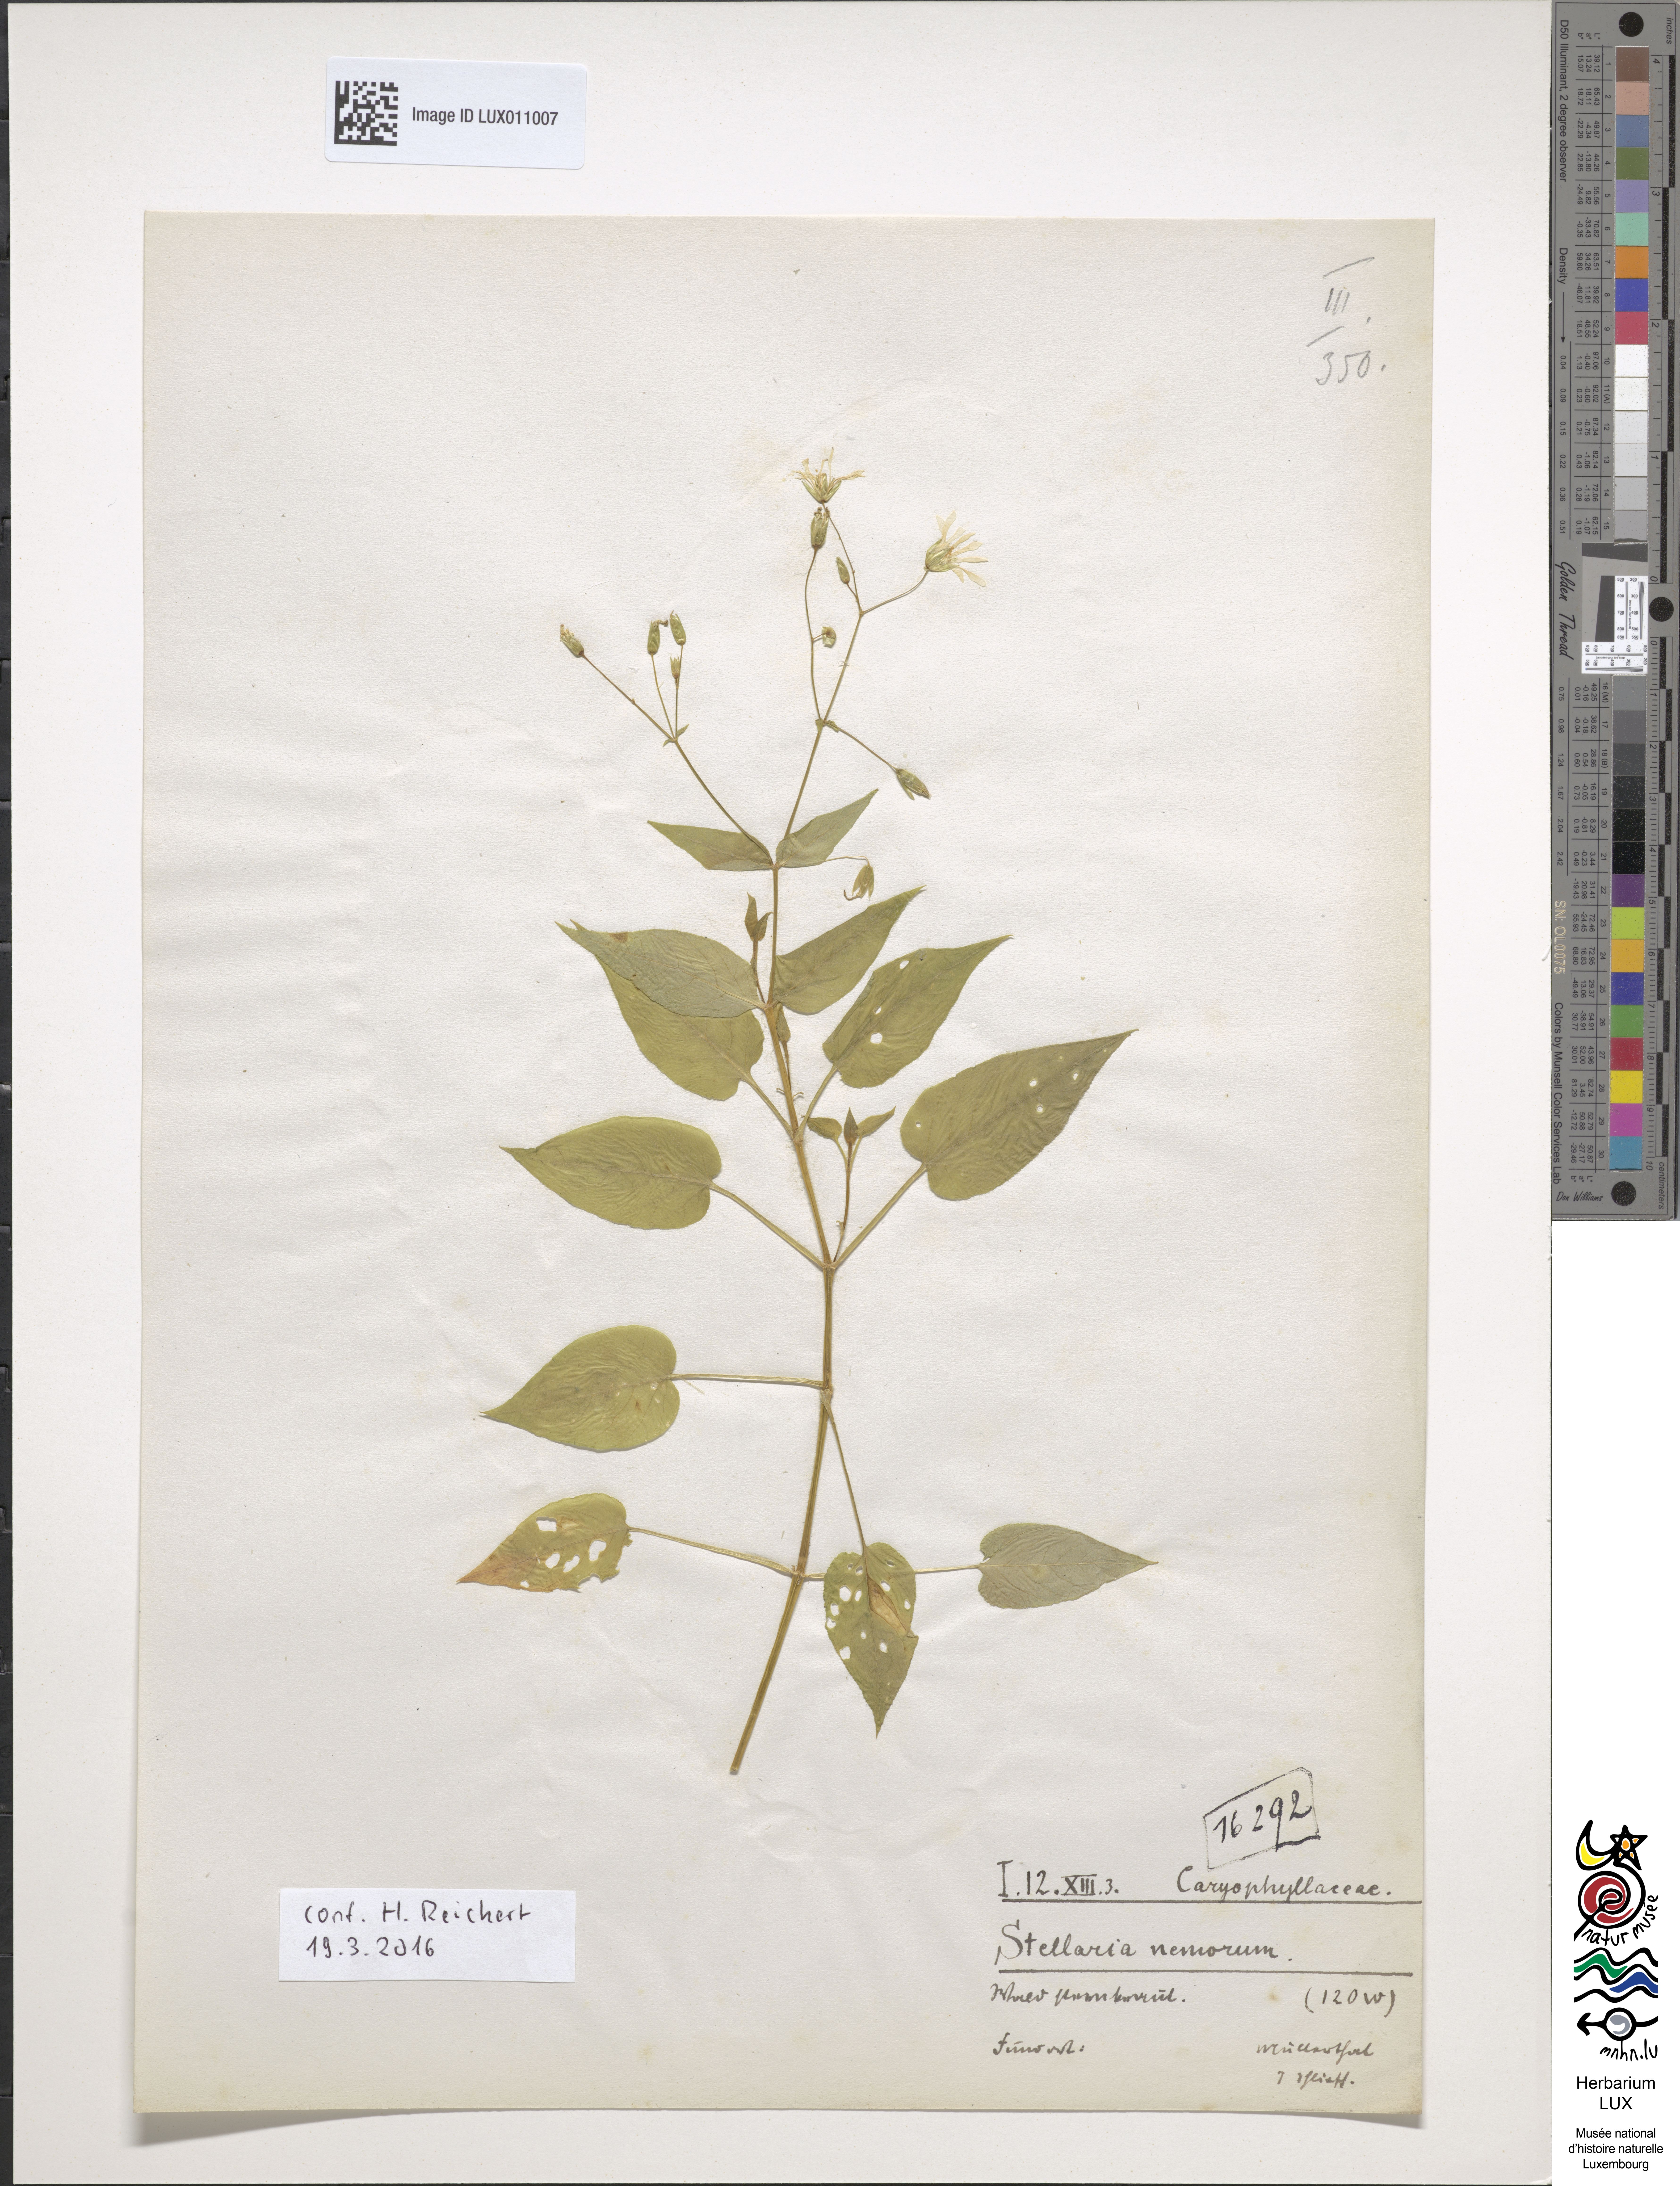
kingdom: Plantae
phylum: Tracheophyta
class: Magnoliopsida
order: Caryophyllales
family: Caryophyllaceae
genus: Stellaria
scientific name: Stellaria nemorum
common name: Wood stitchwort
